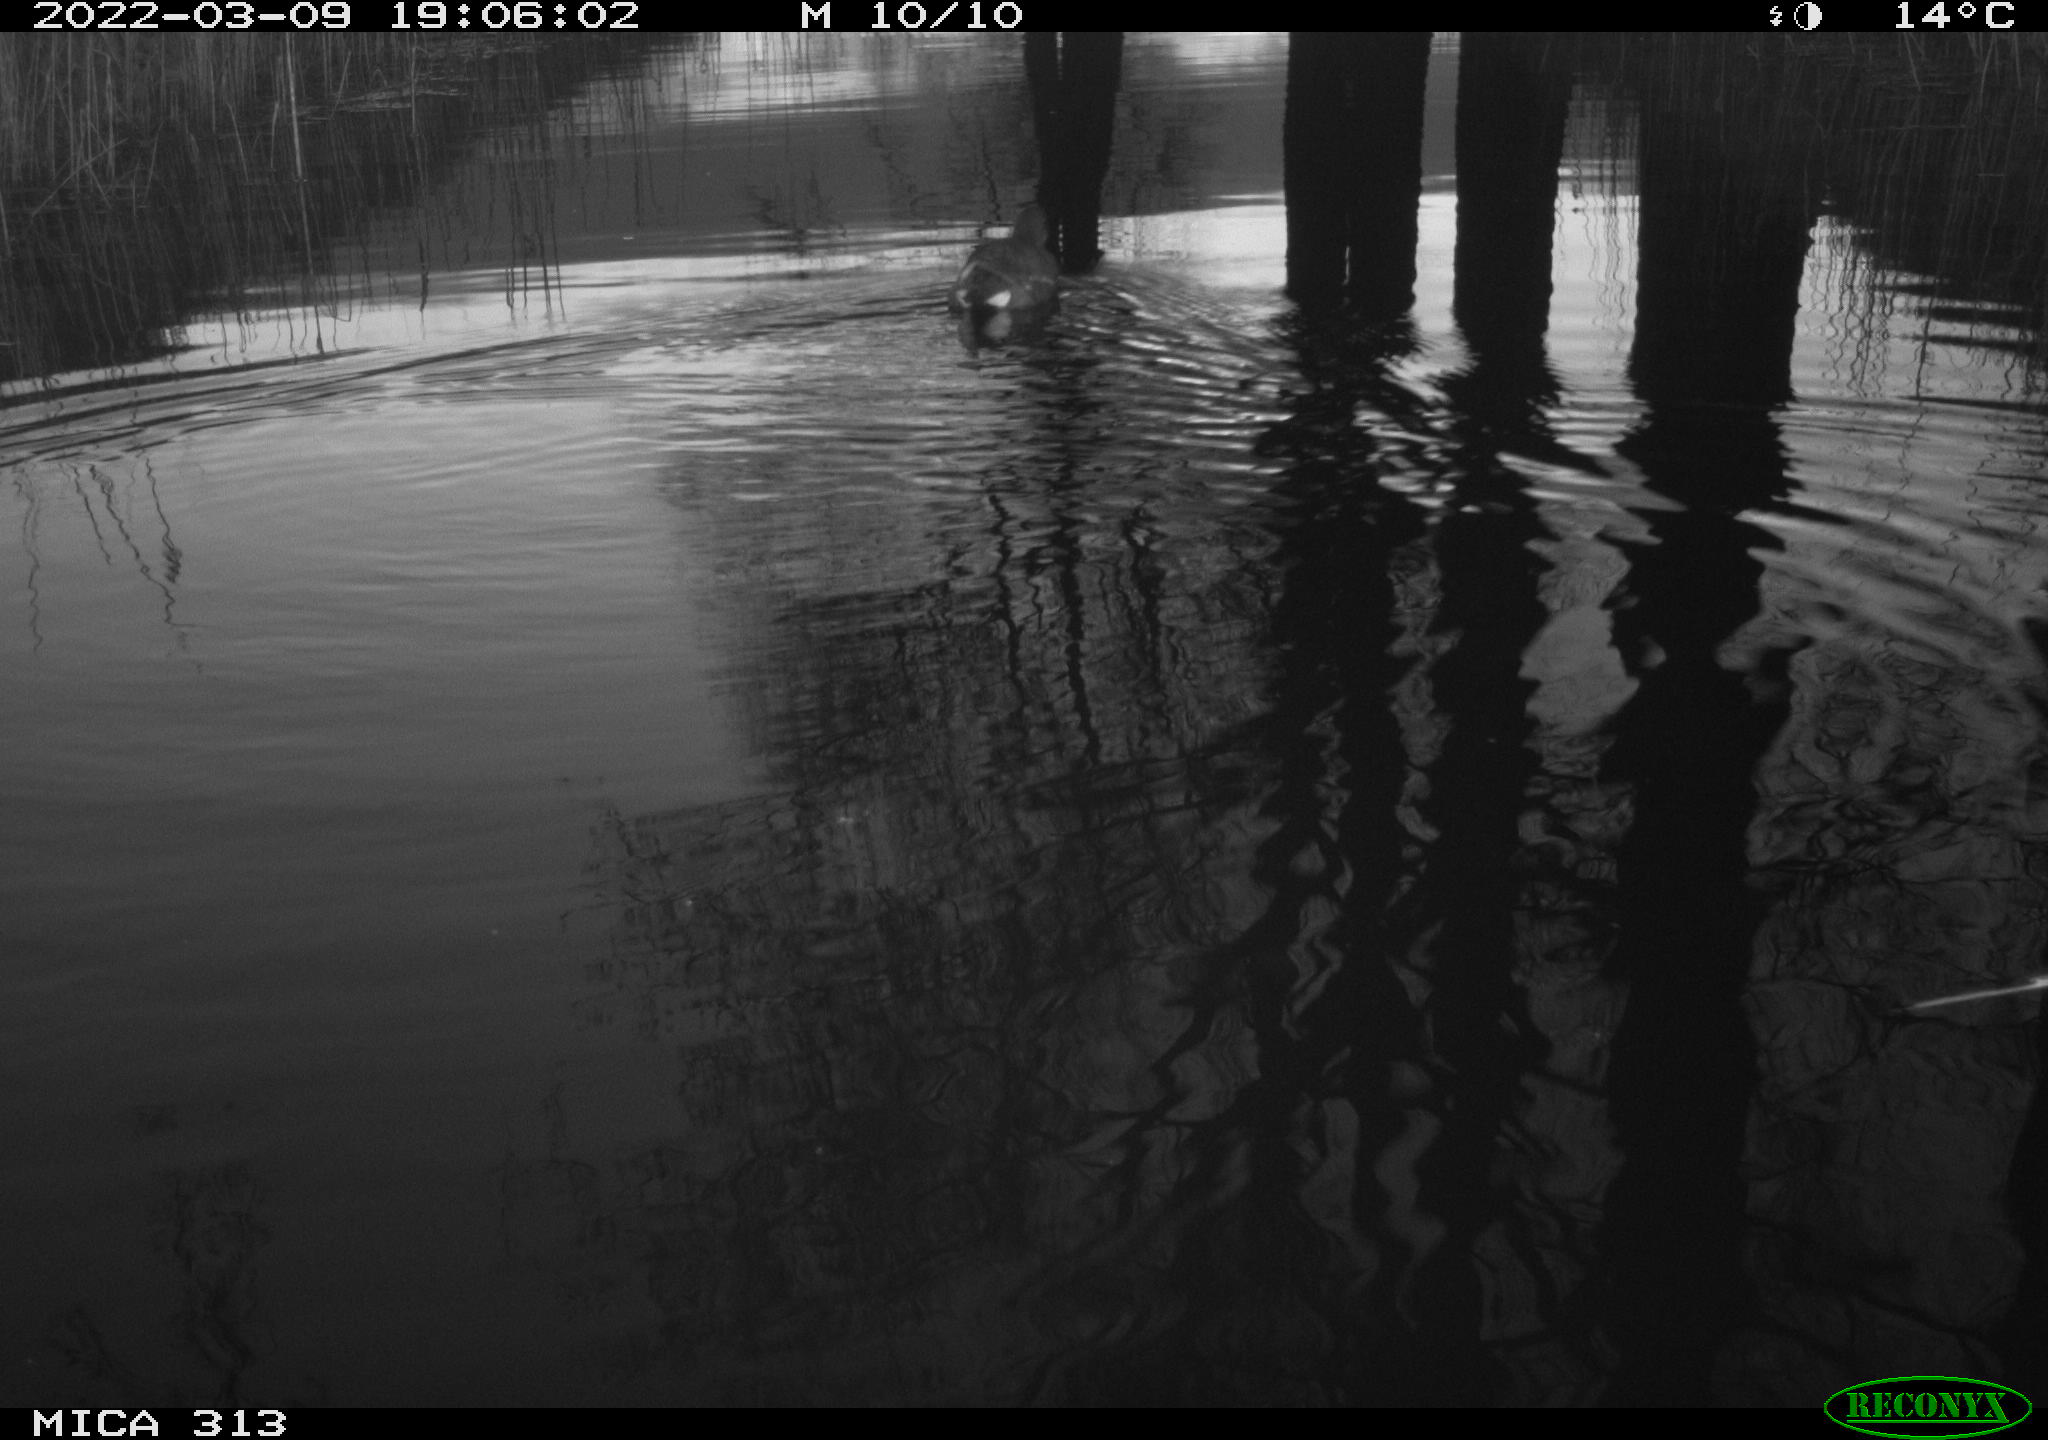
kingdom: Animalia
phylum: Chordata
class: Aves
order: Gruiformes
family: Rallidae
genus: Gallinula
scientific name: Gallinula chloropus
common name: Common moorhen
